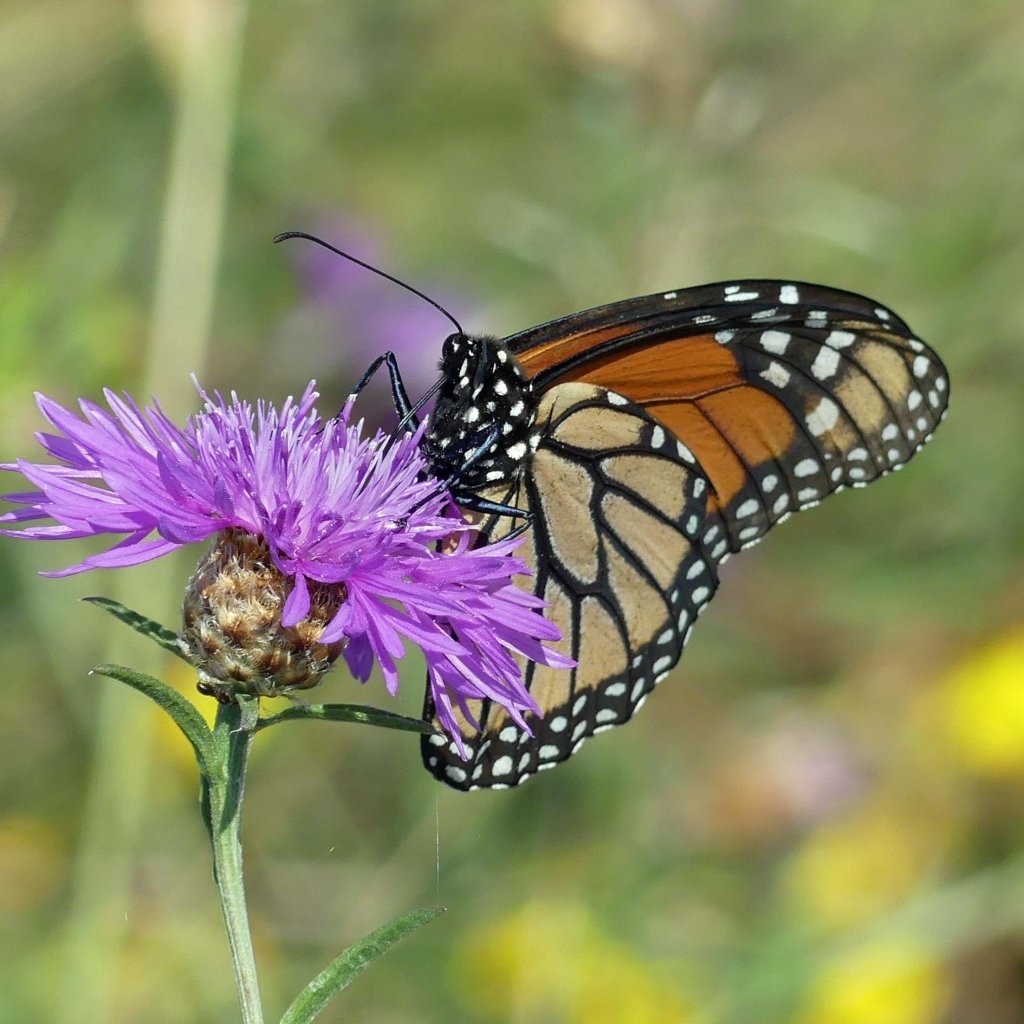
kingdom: Animalia
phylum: Arthropoda
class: Insecta
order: Lepidoptera
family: Nymphalidae
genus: Danaus
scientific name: Danaus plexippus
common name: Monarch
